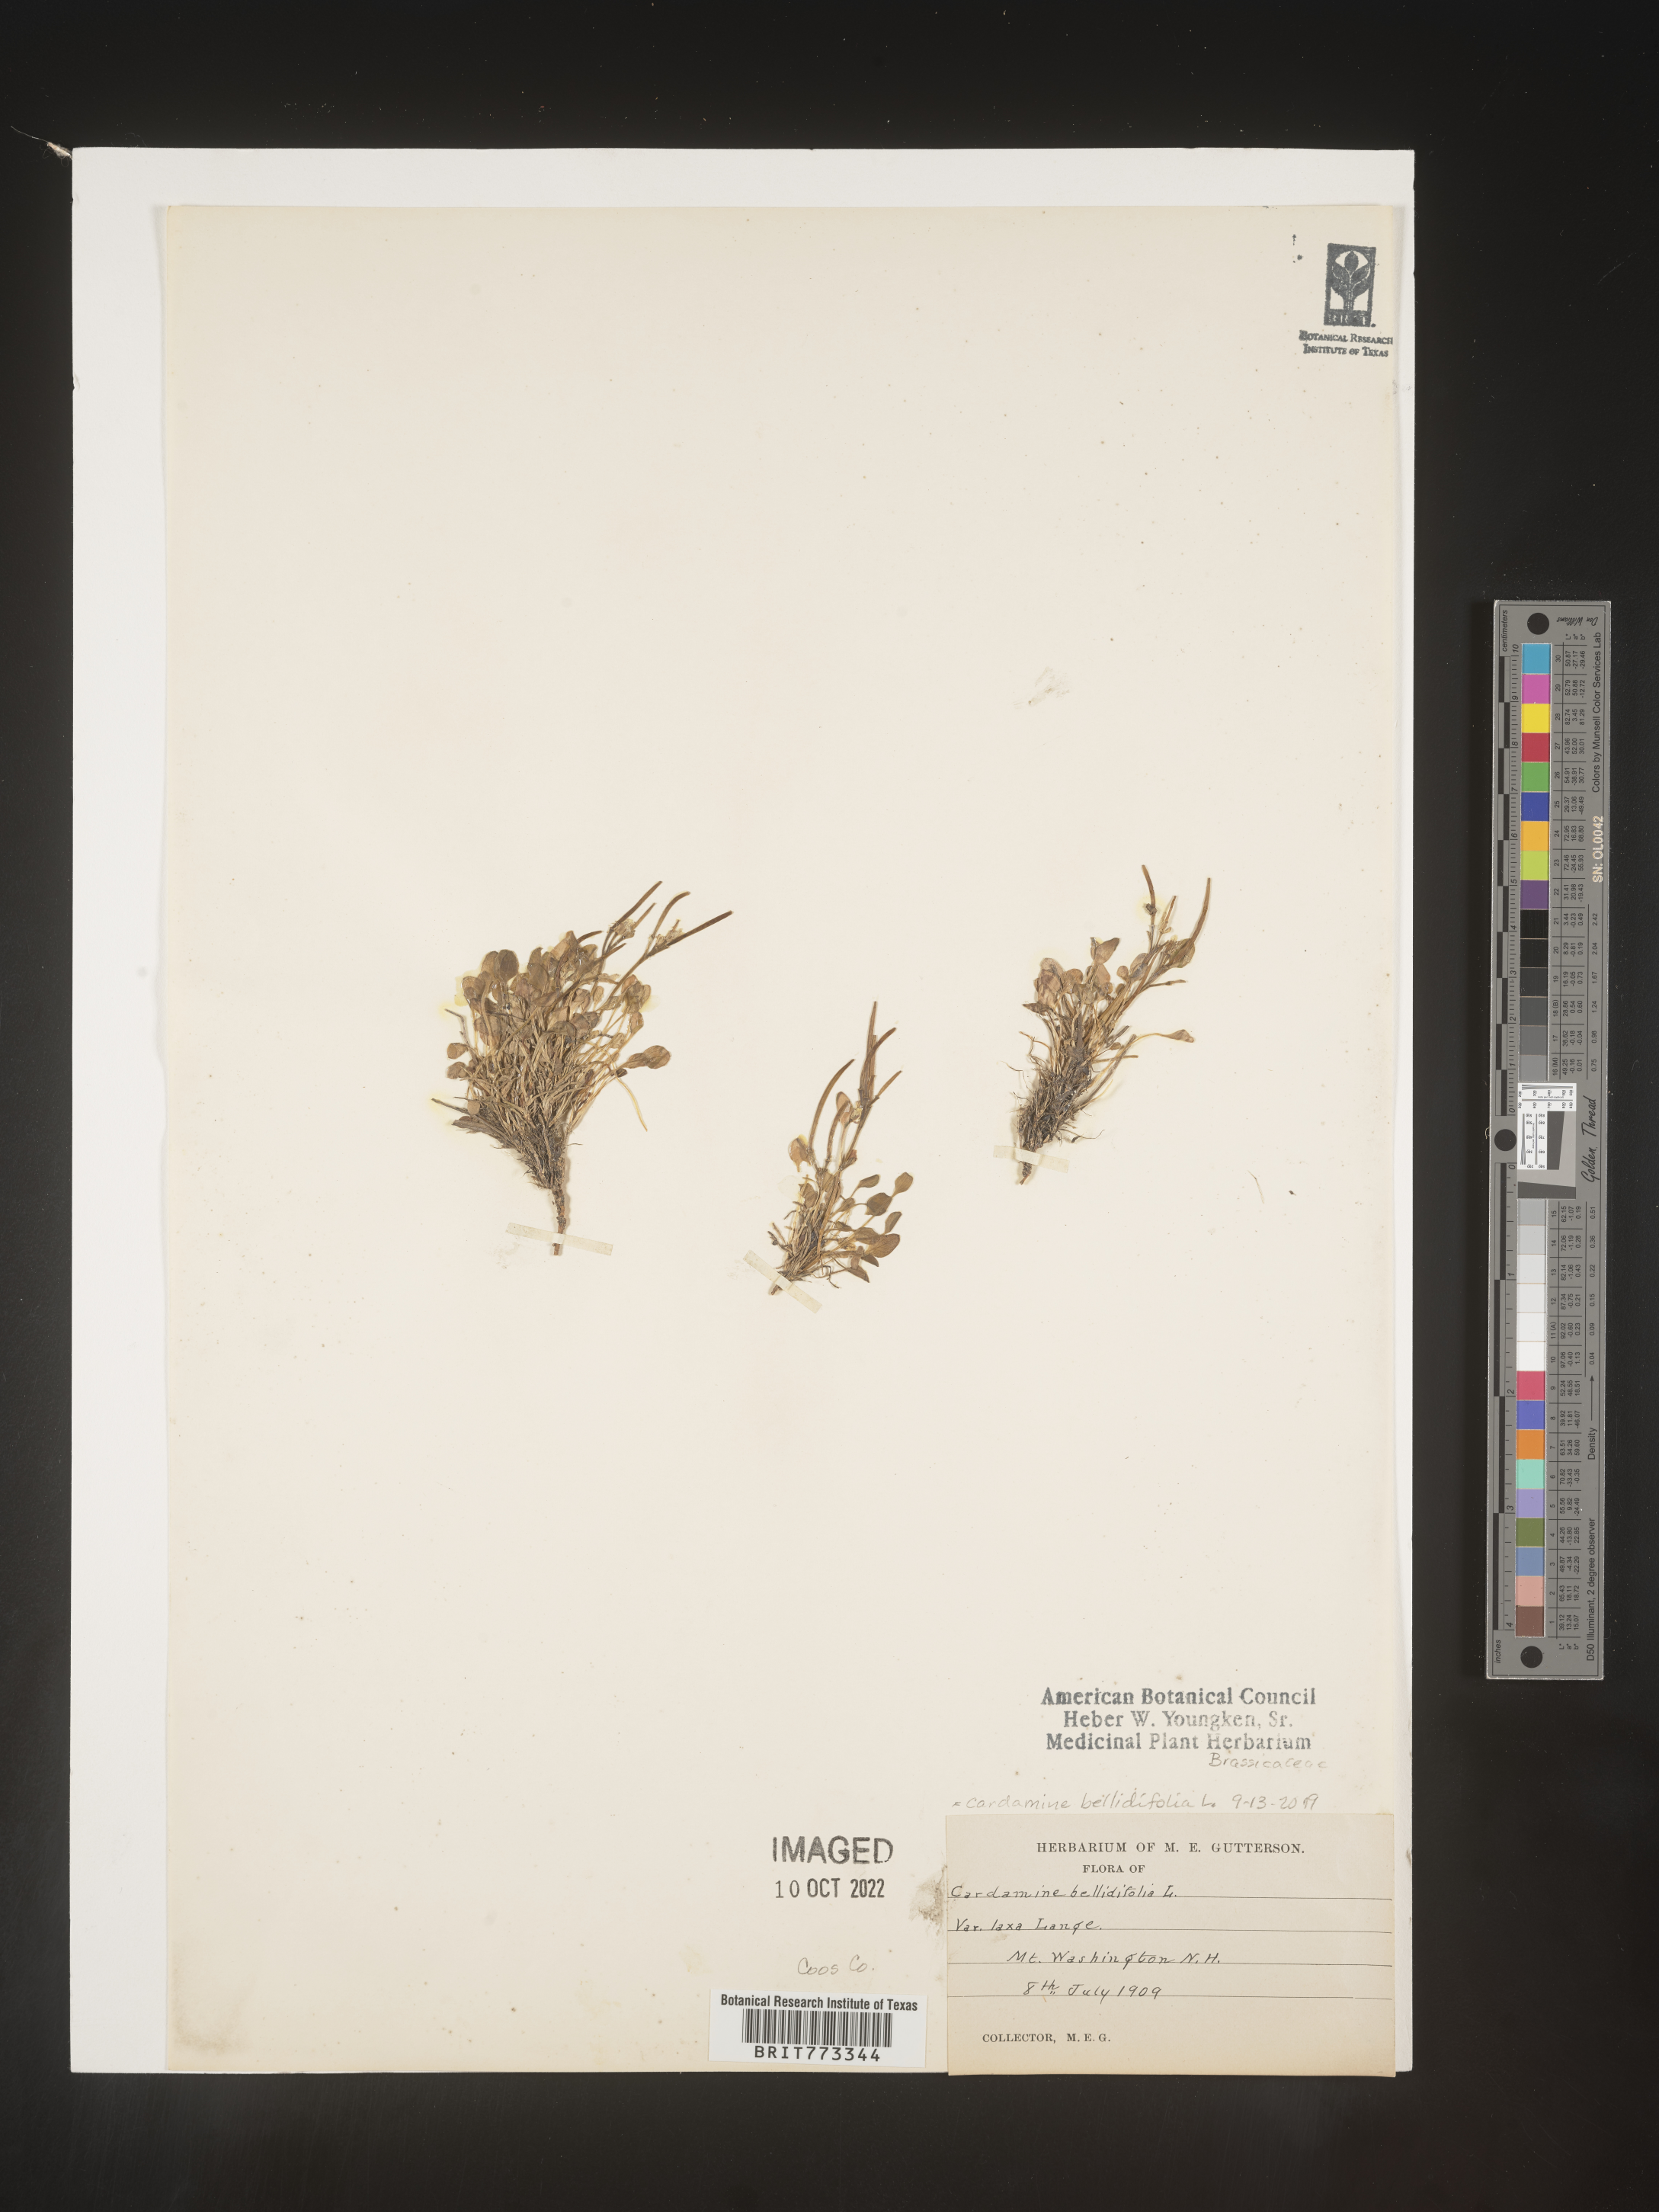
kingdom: Plantae
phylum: Tracheophyta
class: Magnoliopsida
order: Brassicales
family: Brassicaceae
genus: Cardamine
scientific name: Cardamine
